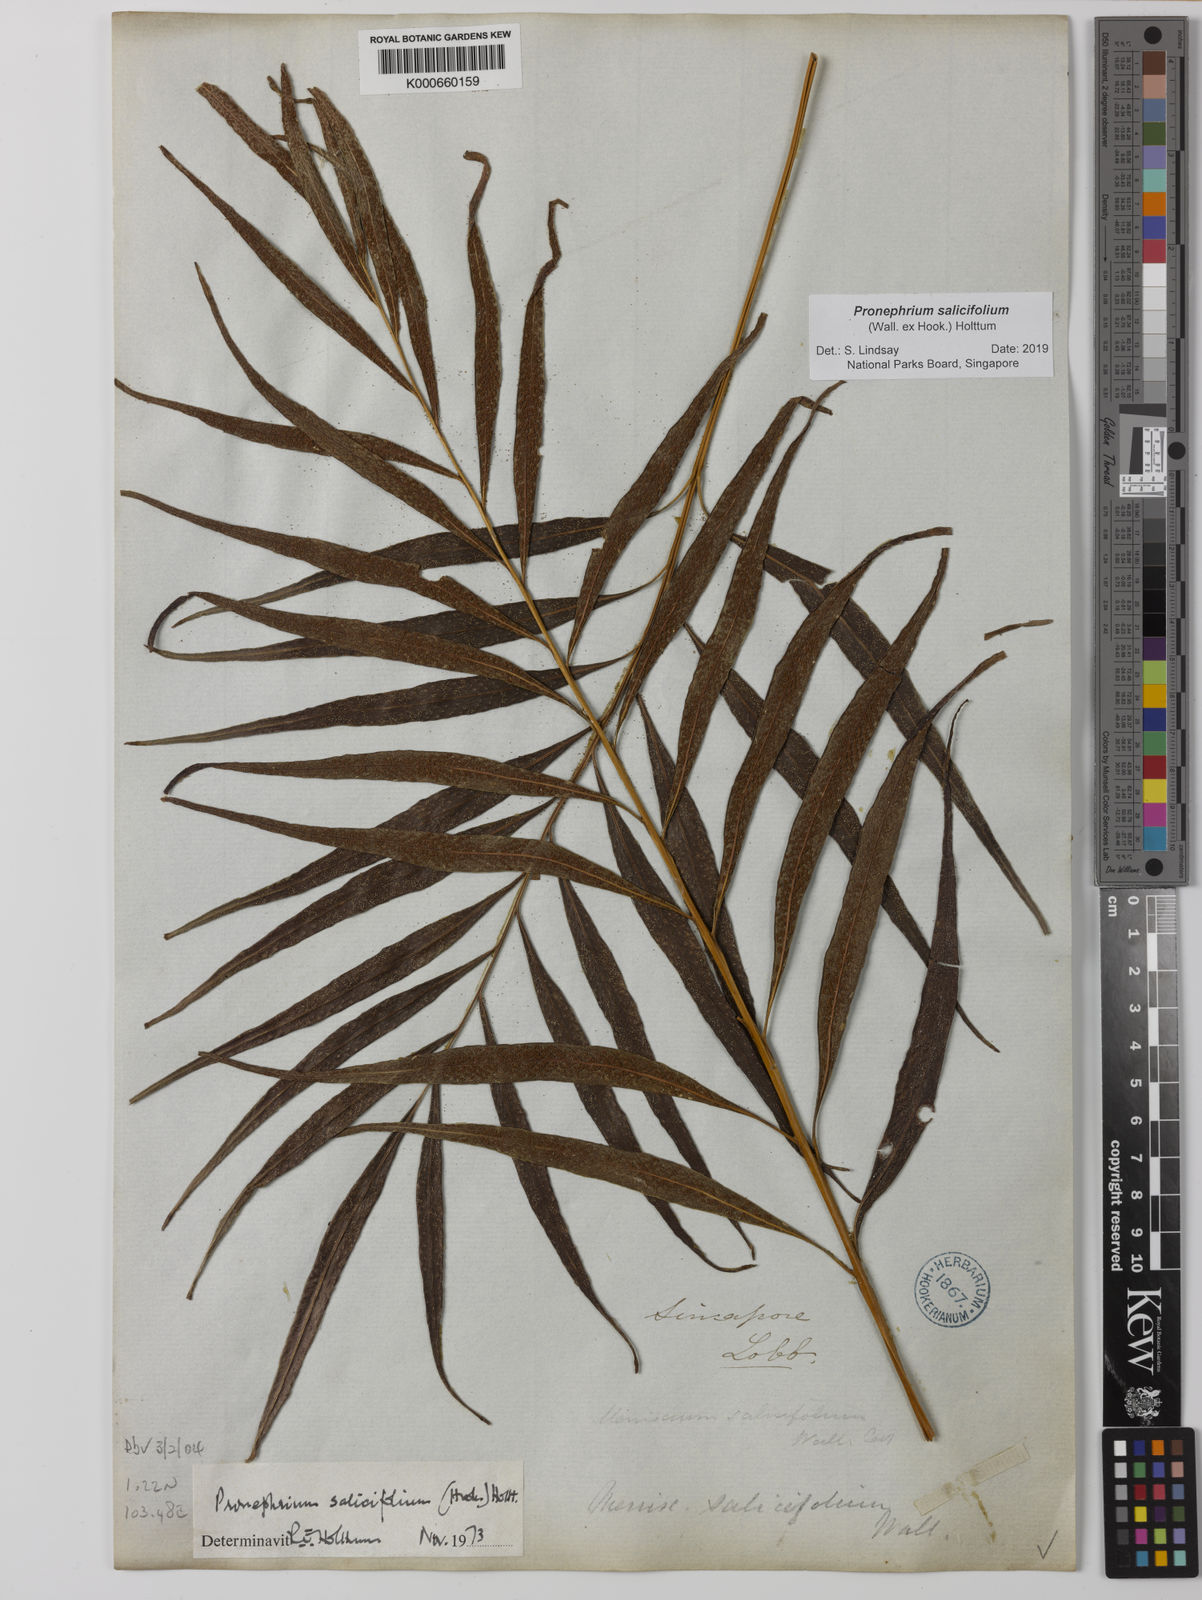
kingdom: Plantae
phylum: Tracheophyta
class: Polypodiopsida
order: Polypodiales
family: Thelypteridaceae
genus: Grypothrix
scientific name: Grypothrix salicifolia
